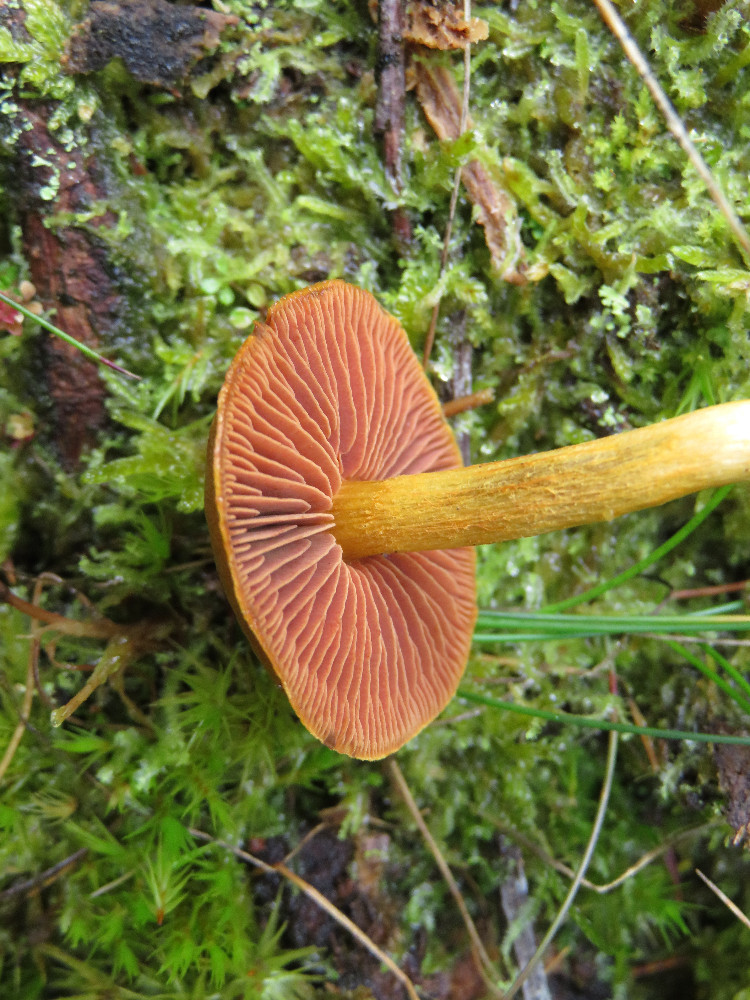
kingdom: Fungi
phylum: Basidiomycota
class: Agaricomycetes
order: Agaricales
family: Cortinariaceae
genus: Cortinarius
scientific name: Cortinarius
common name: cinnoberbladet slørhat
